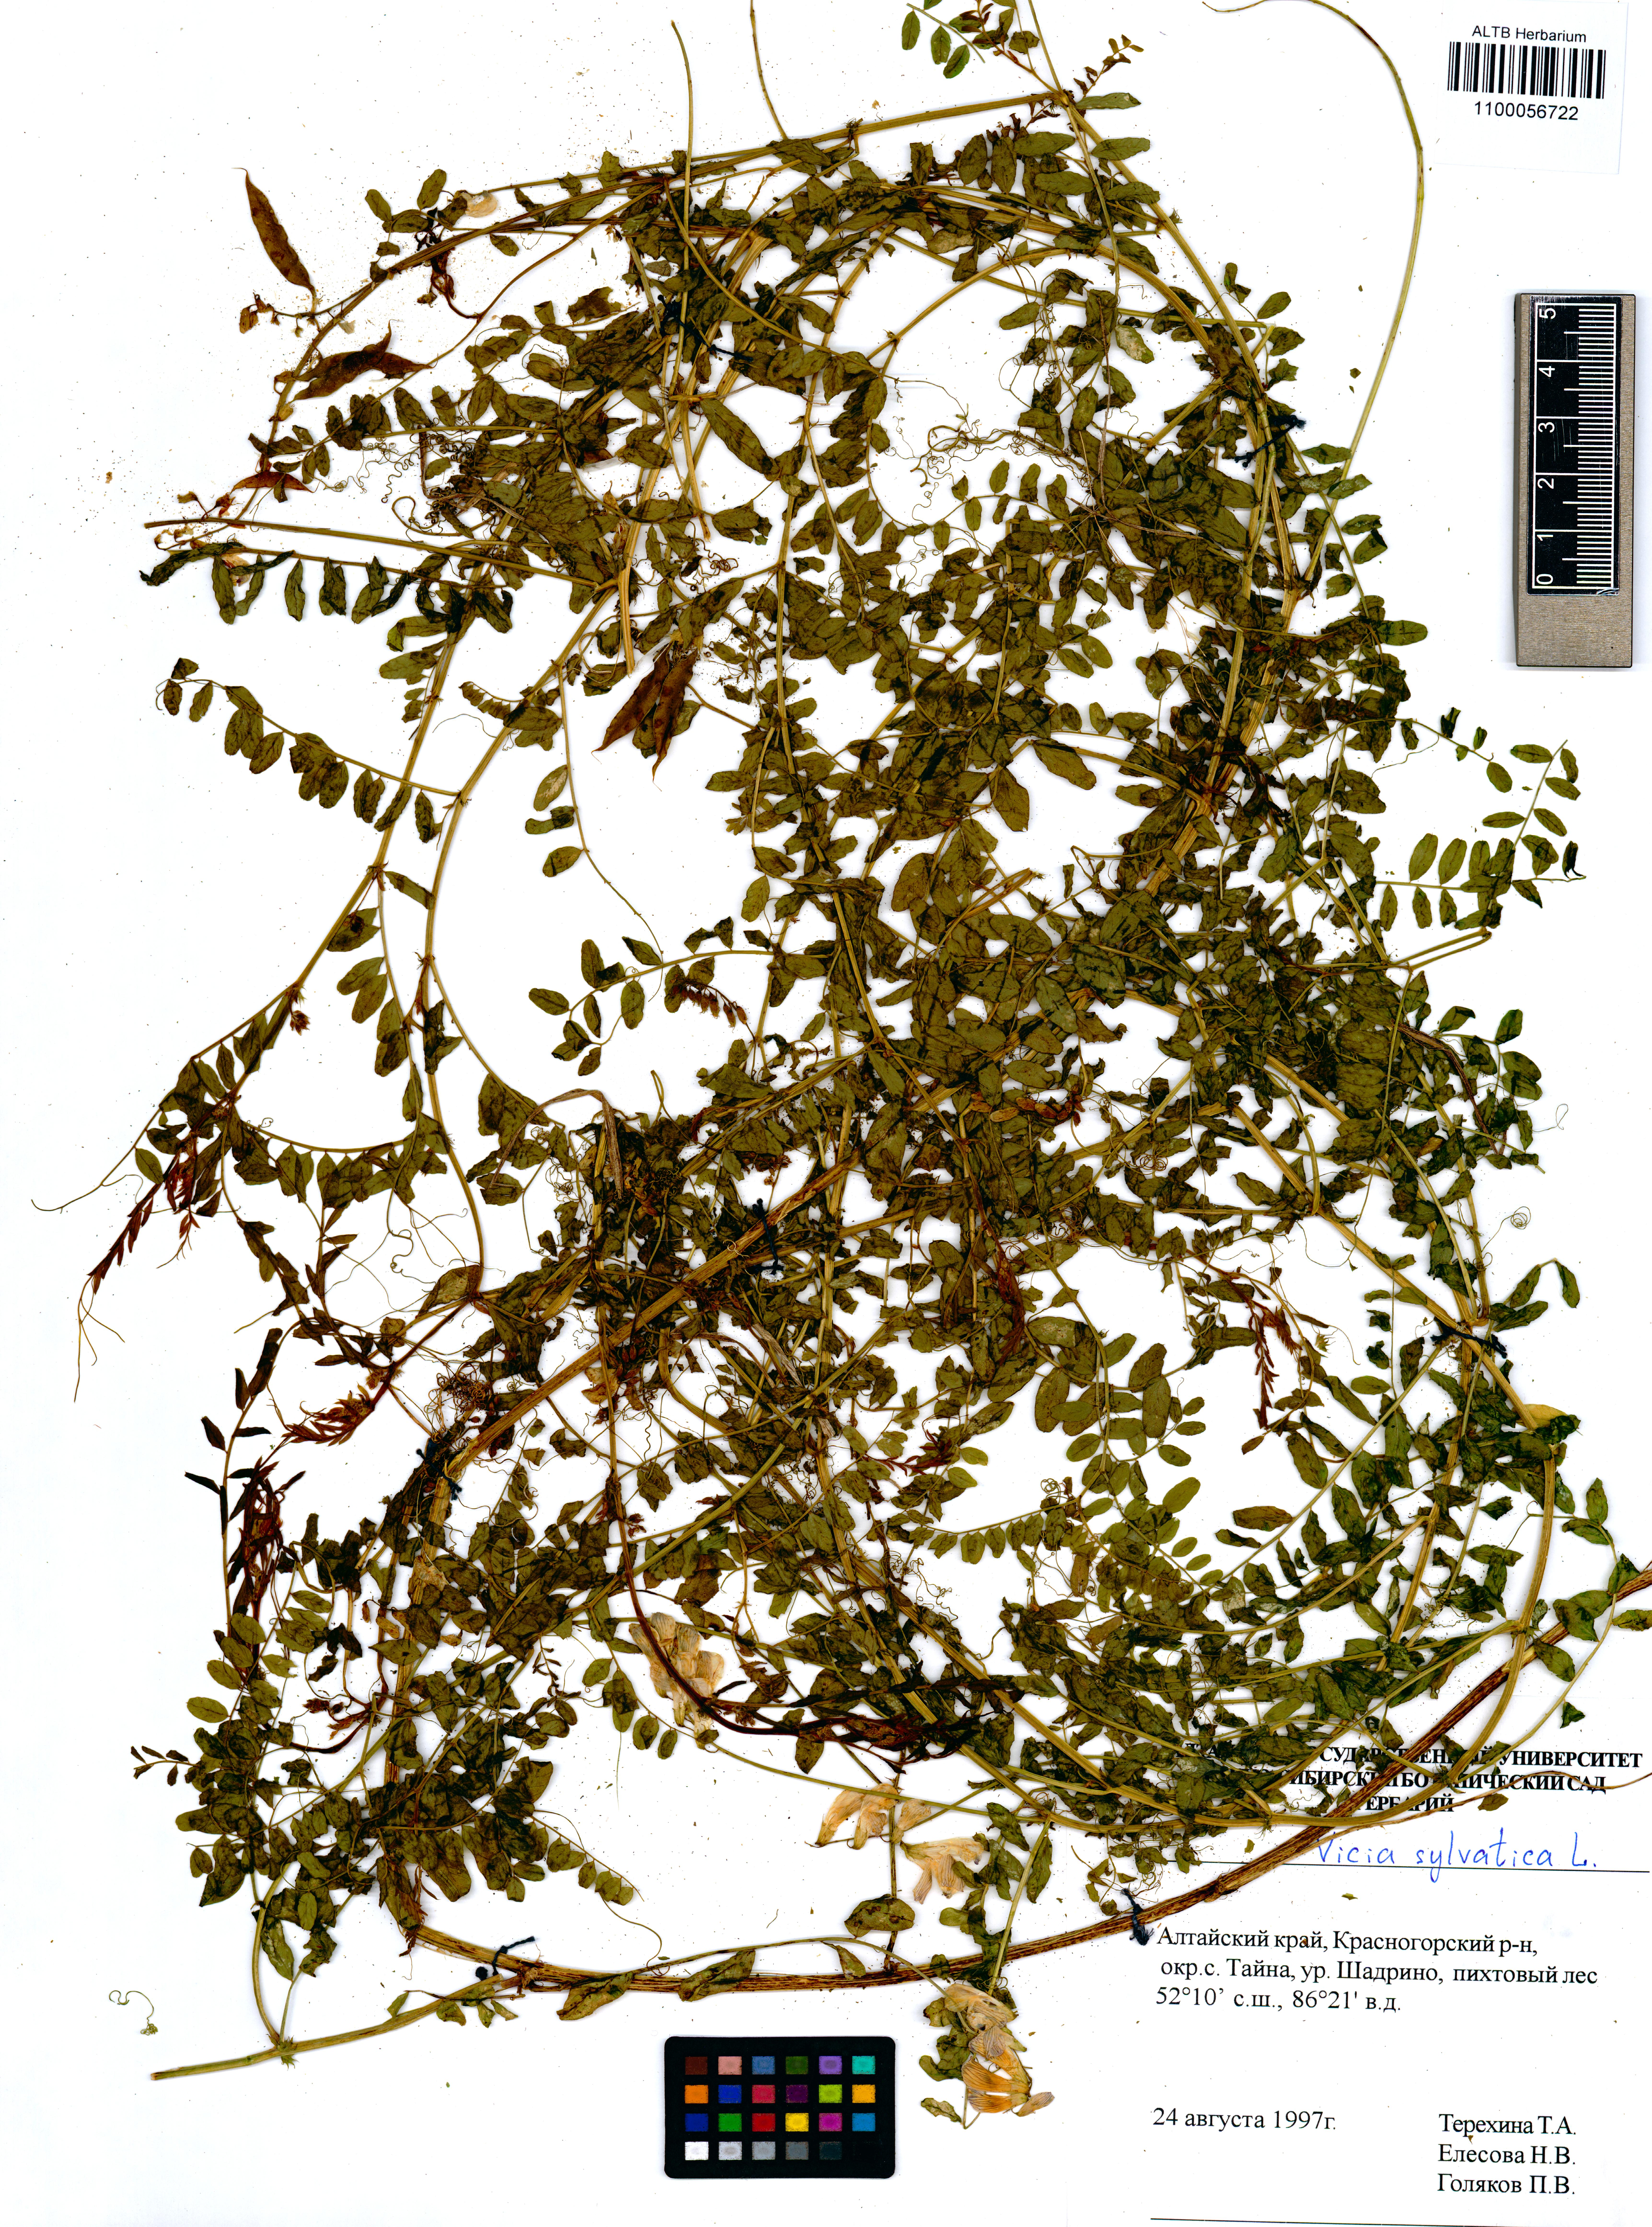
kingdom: Plantae
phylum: Tracheophyta
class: Magnoliopsida
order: Fabales
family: Fabaceae
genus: Vicia
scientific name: Vicia sylvatica
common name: Wood vetch
